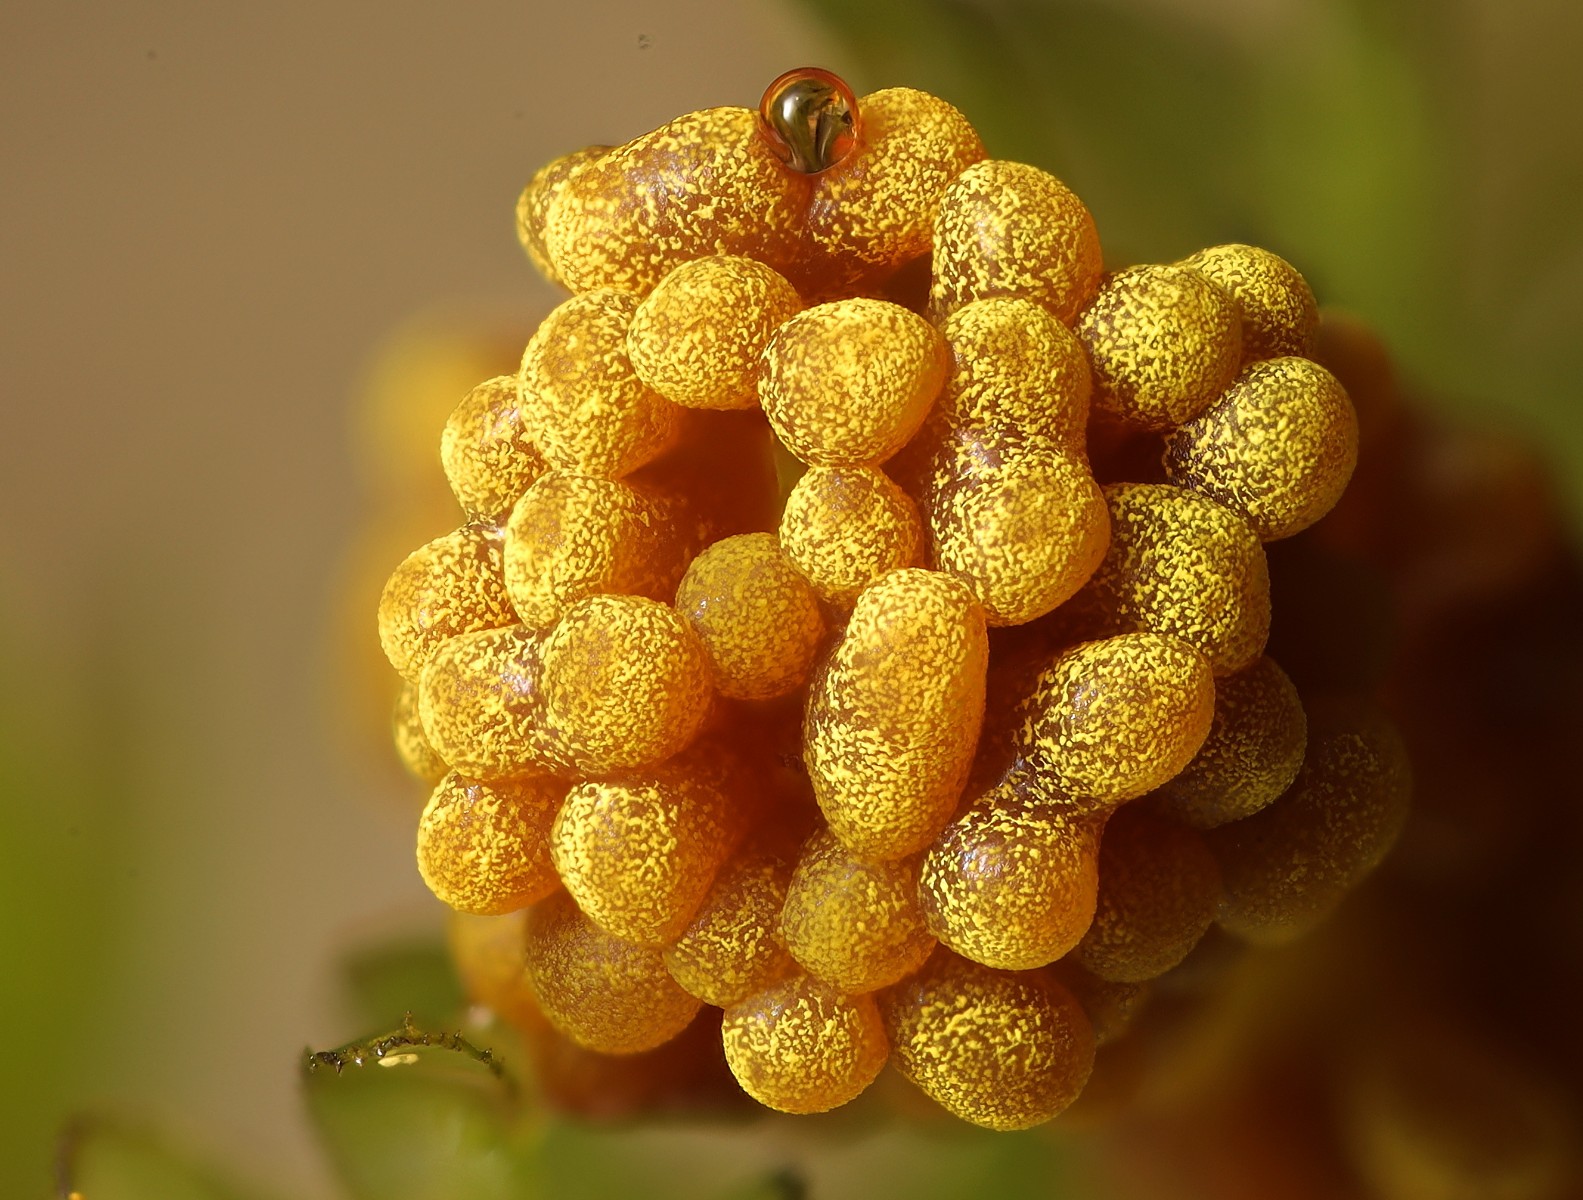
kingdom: Protozoa
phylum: Mycetozoa
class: Myxomycetes
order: Physarales
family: Physaraceae
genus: Physarum
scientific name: Physarum virescens
